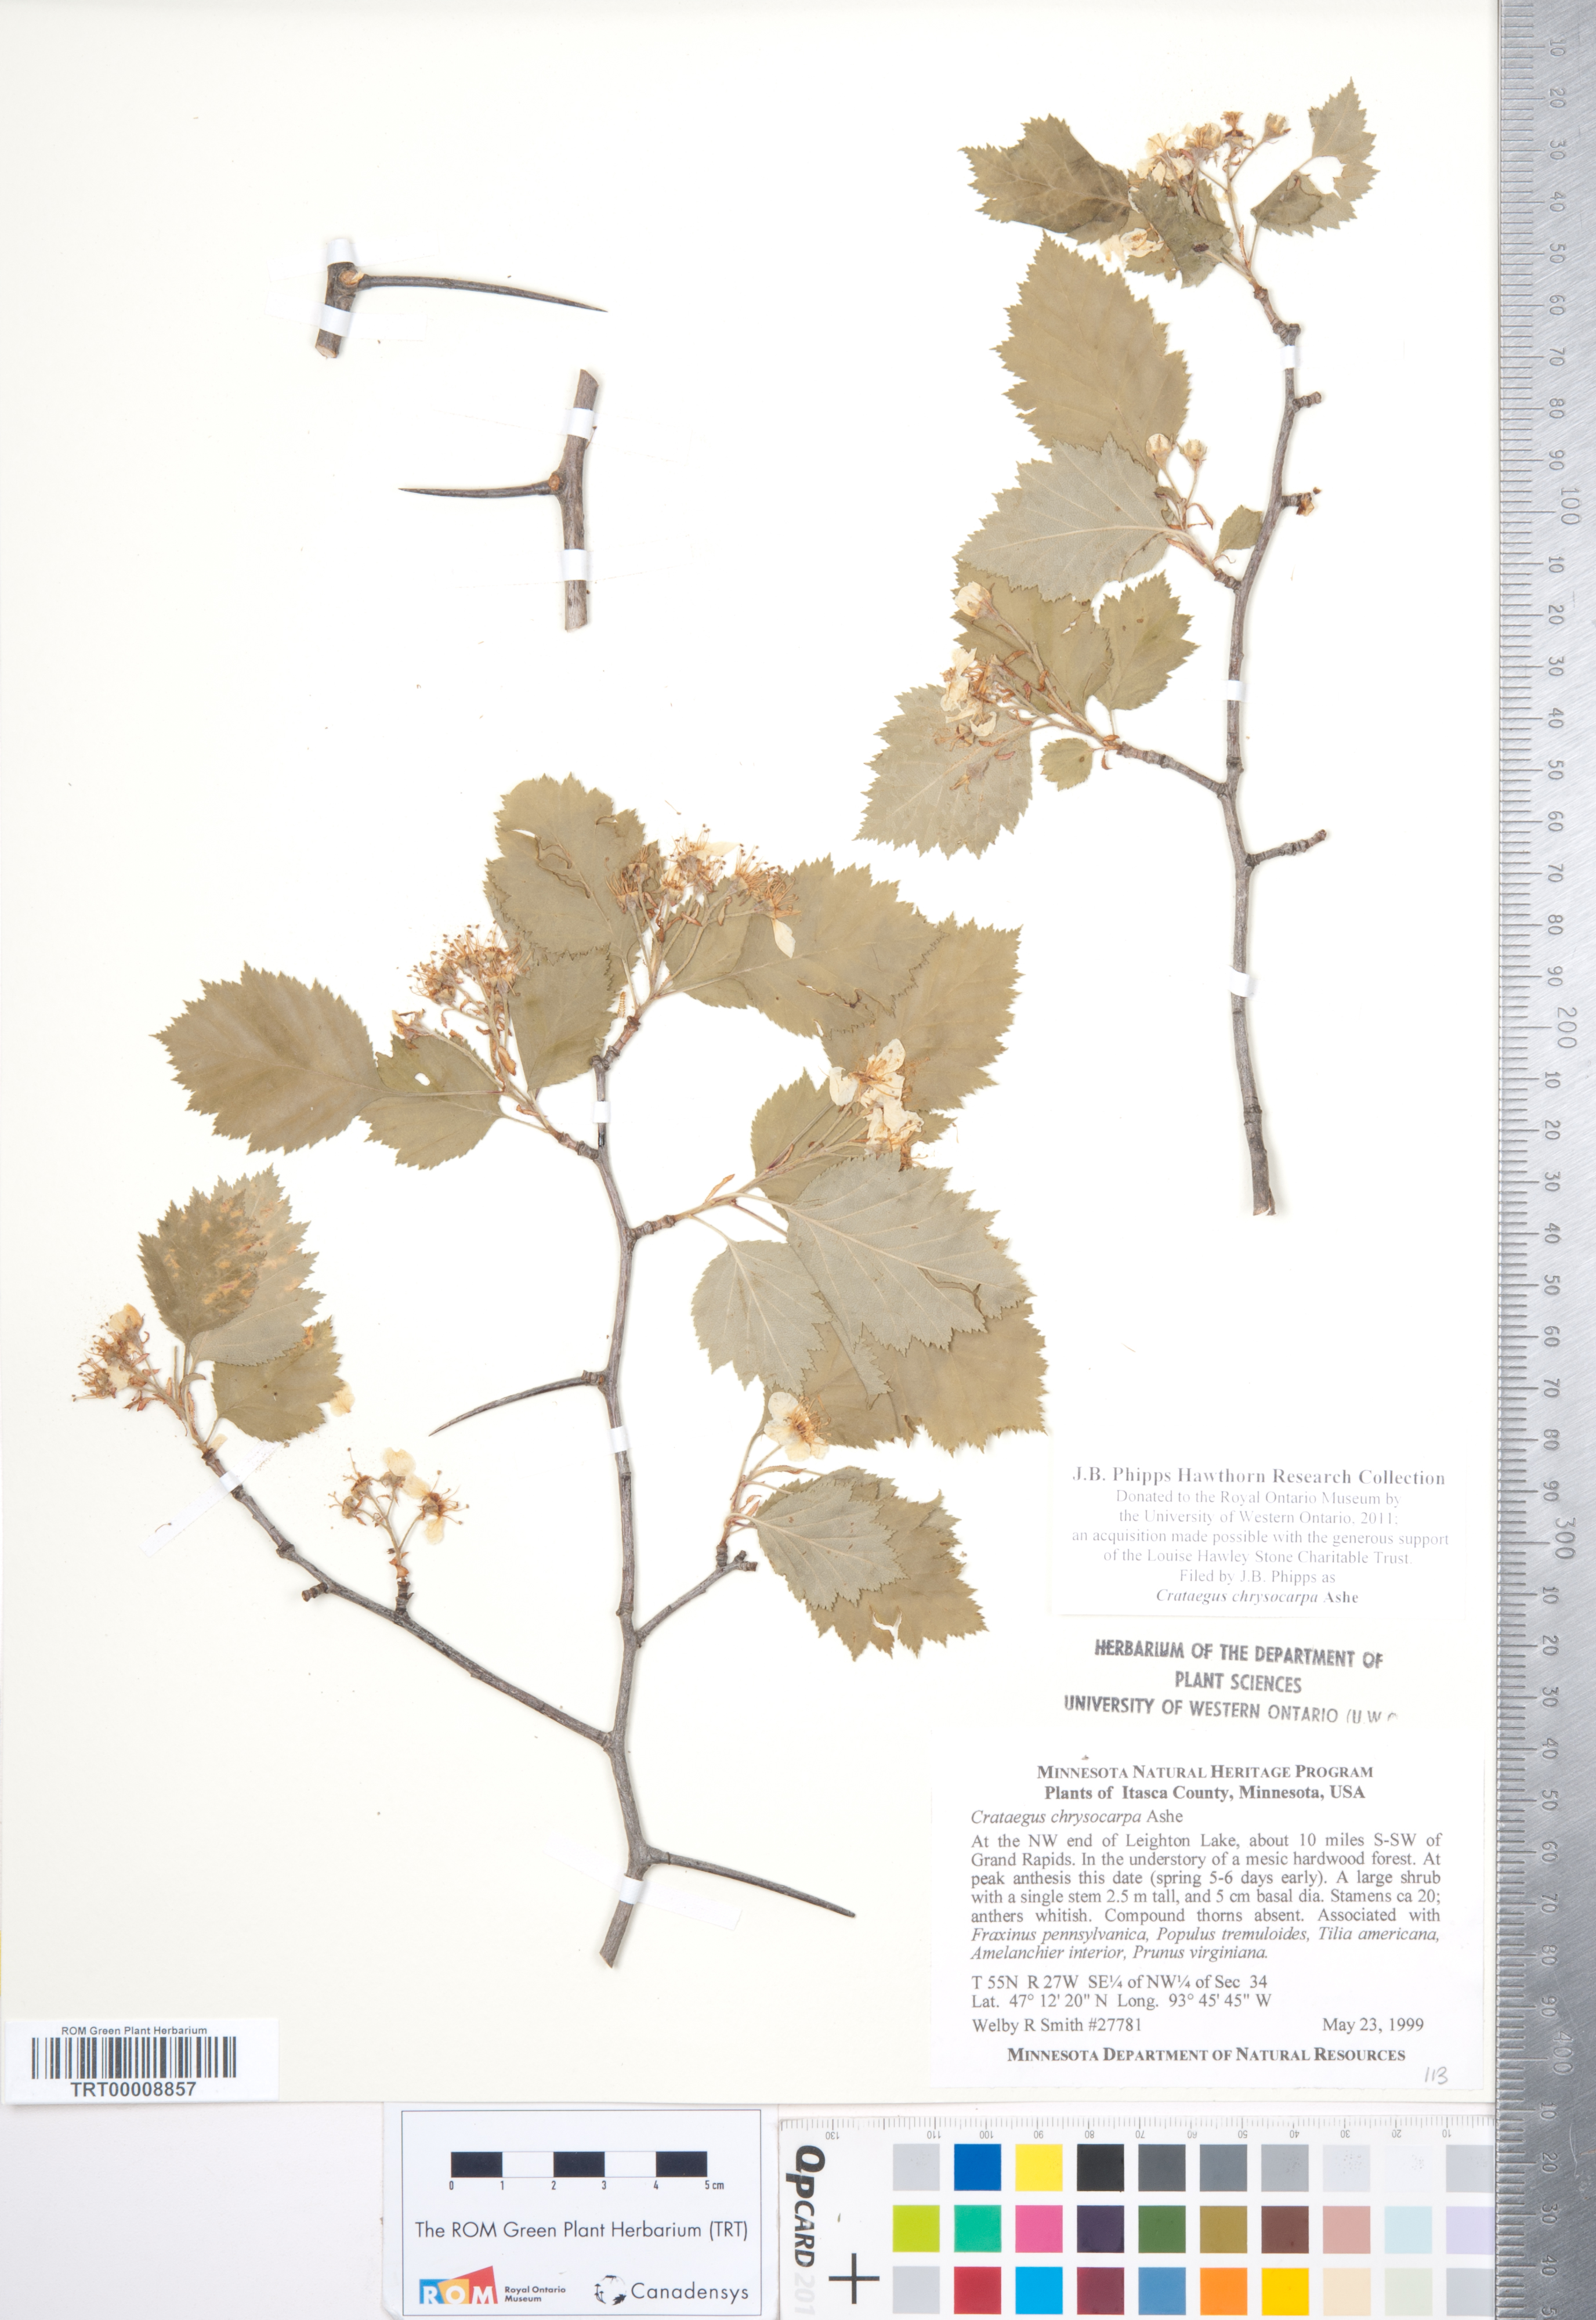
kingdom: Plantae
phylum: Tracheophyta
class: Magnoliopsida
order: Rosales
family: Rosaceae
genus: Crataegus
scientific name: Crataegus chrysocarpa
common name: Fire-berry hawthorn
